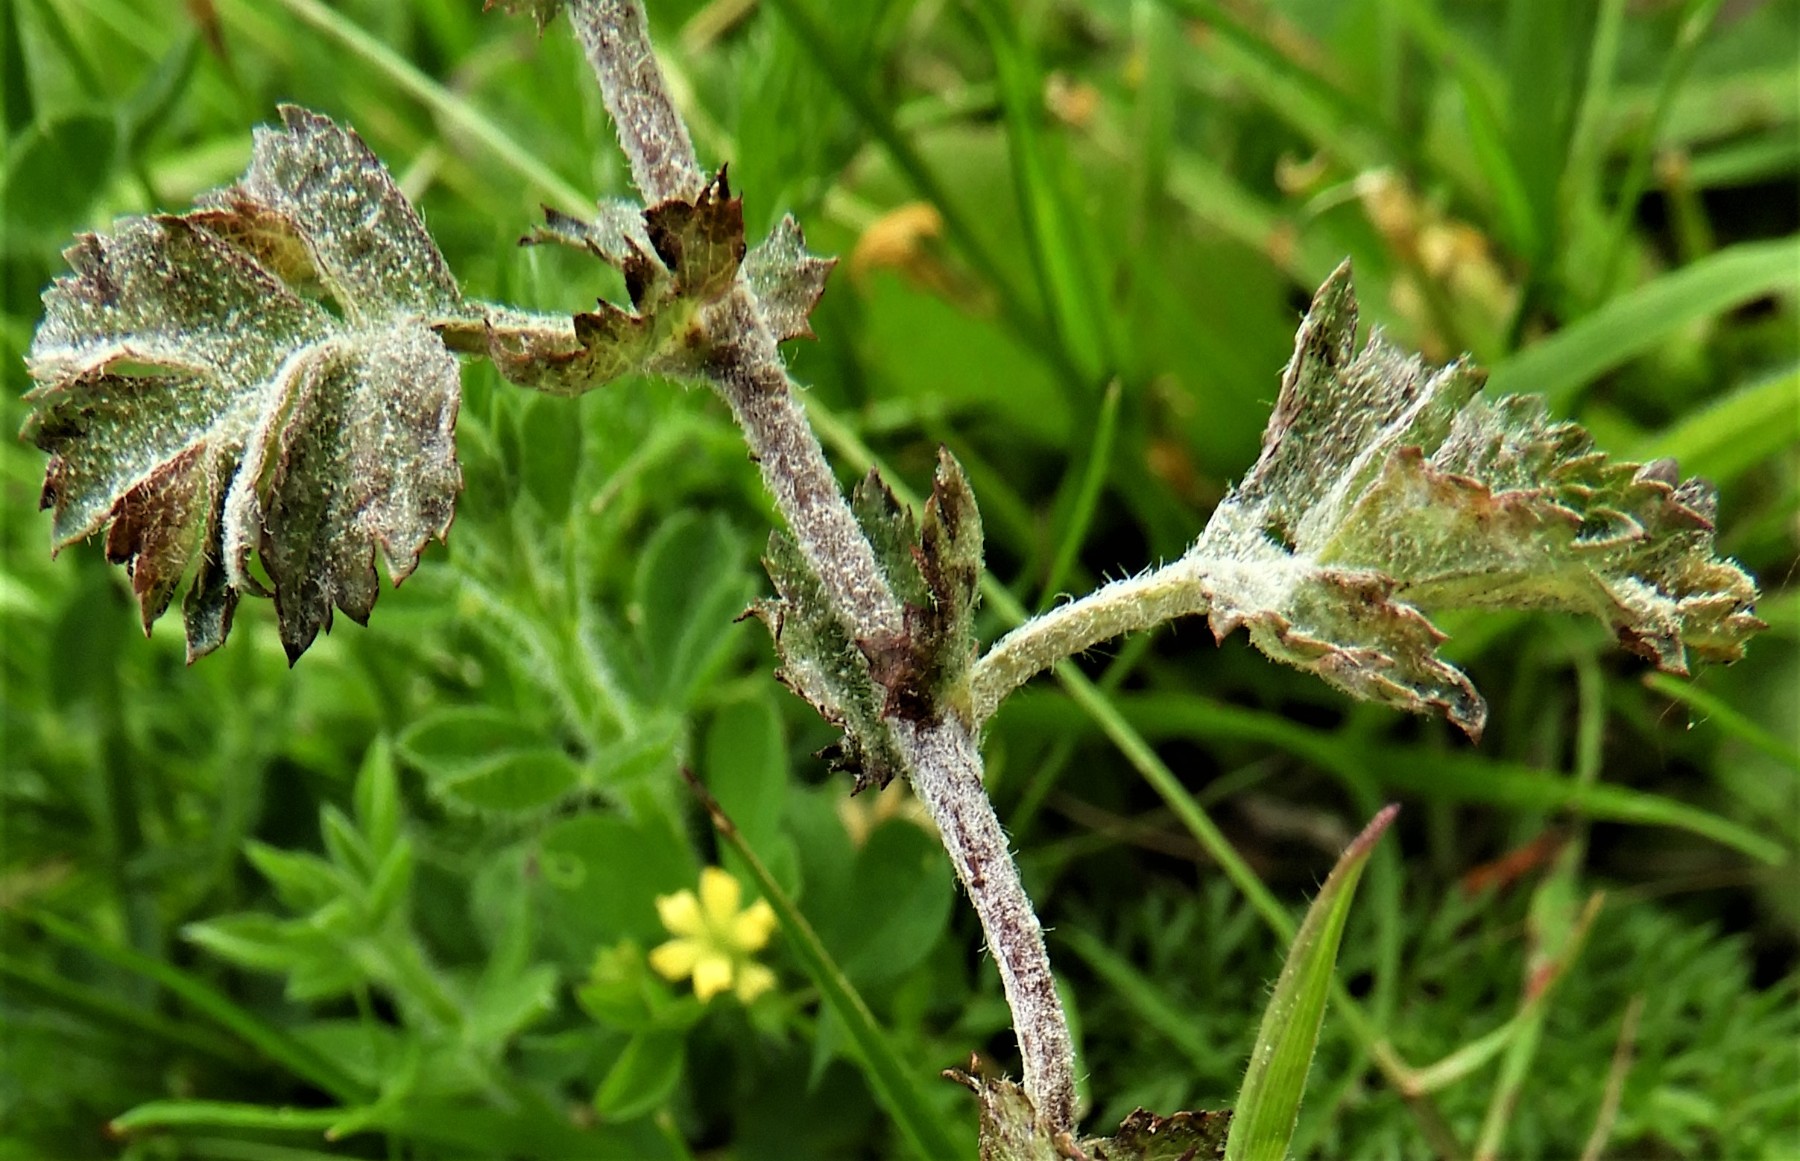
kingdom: Fungi
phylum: Ascomycota
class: Leotiomycetes
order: Helotiales
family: Erysiphaceae
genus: Podosphaera
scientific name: Podosphaera clandestina
